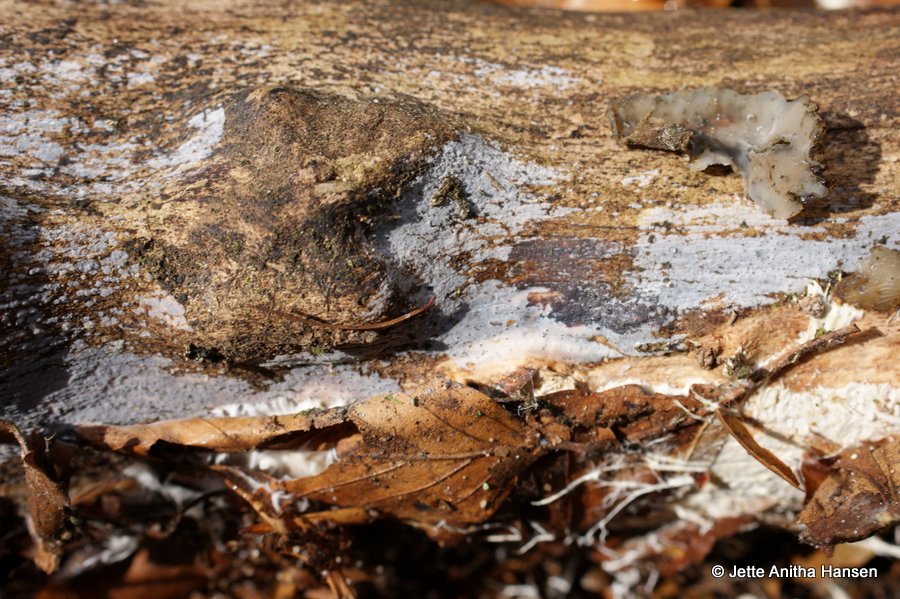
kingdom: Fungi
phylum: Basidiomycota
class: Tremellomycetes
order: Tremellales
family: Exidiaceae
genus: Exidiopsis
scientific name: Exidiopsis effusa
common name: smuk bævrehinde
